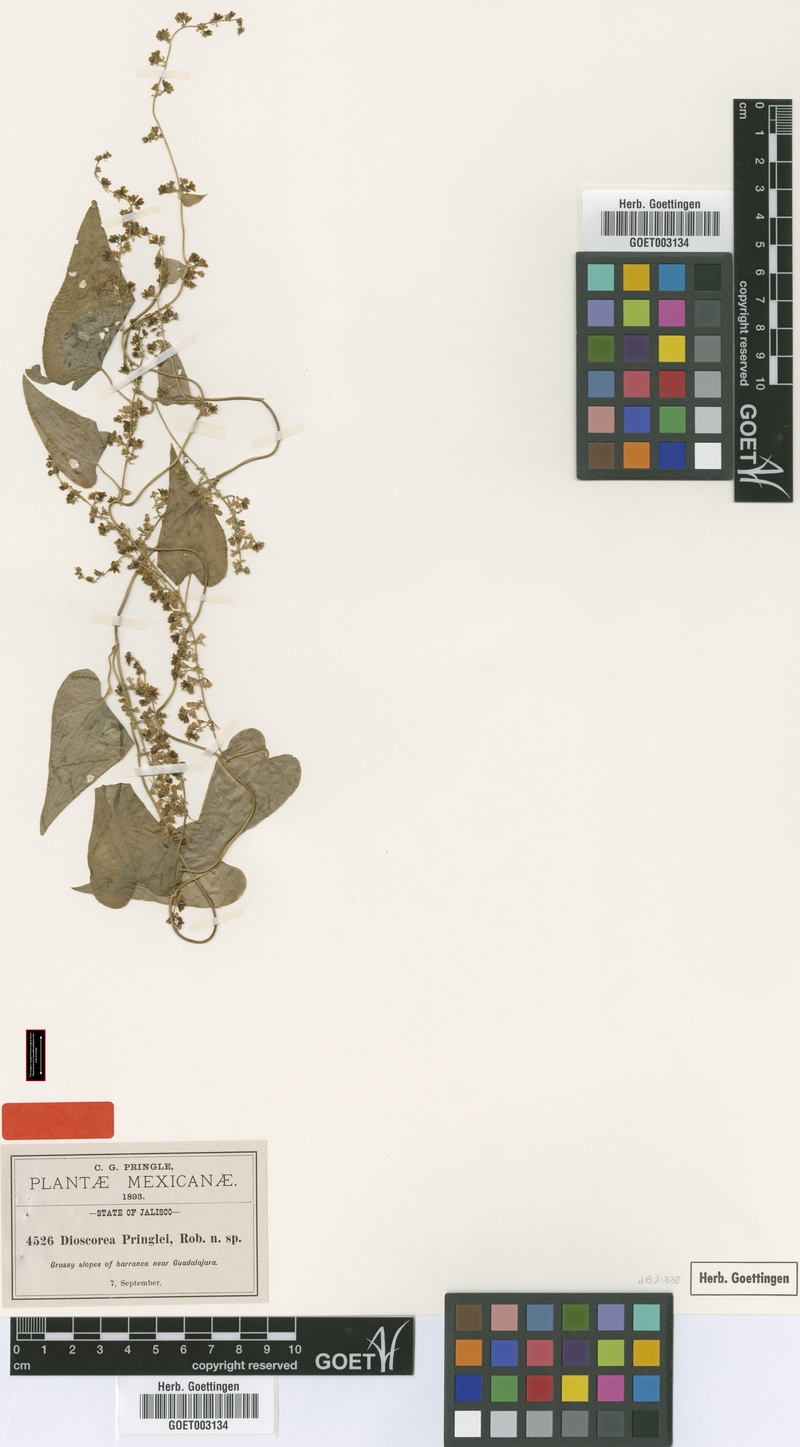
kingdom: Plantae
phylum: Tracheophyta
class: Liliopsida
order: Dioscoreales
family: Dioscoreaceae
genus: Dioscorea
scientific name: Dioscorea pringlei
